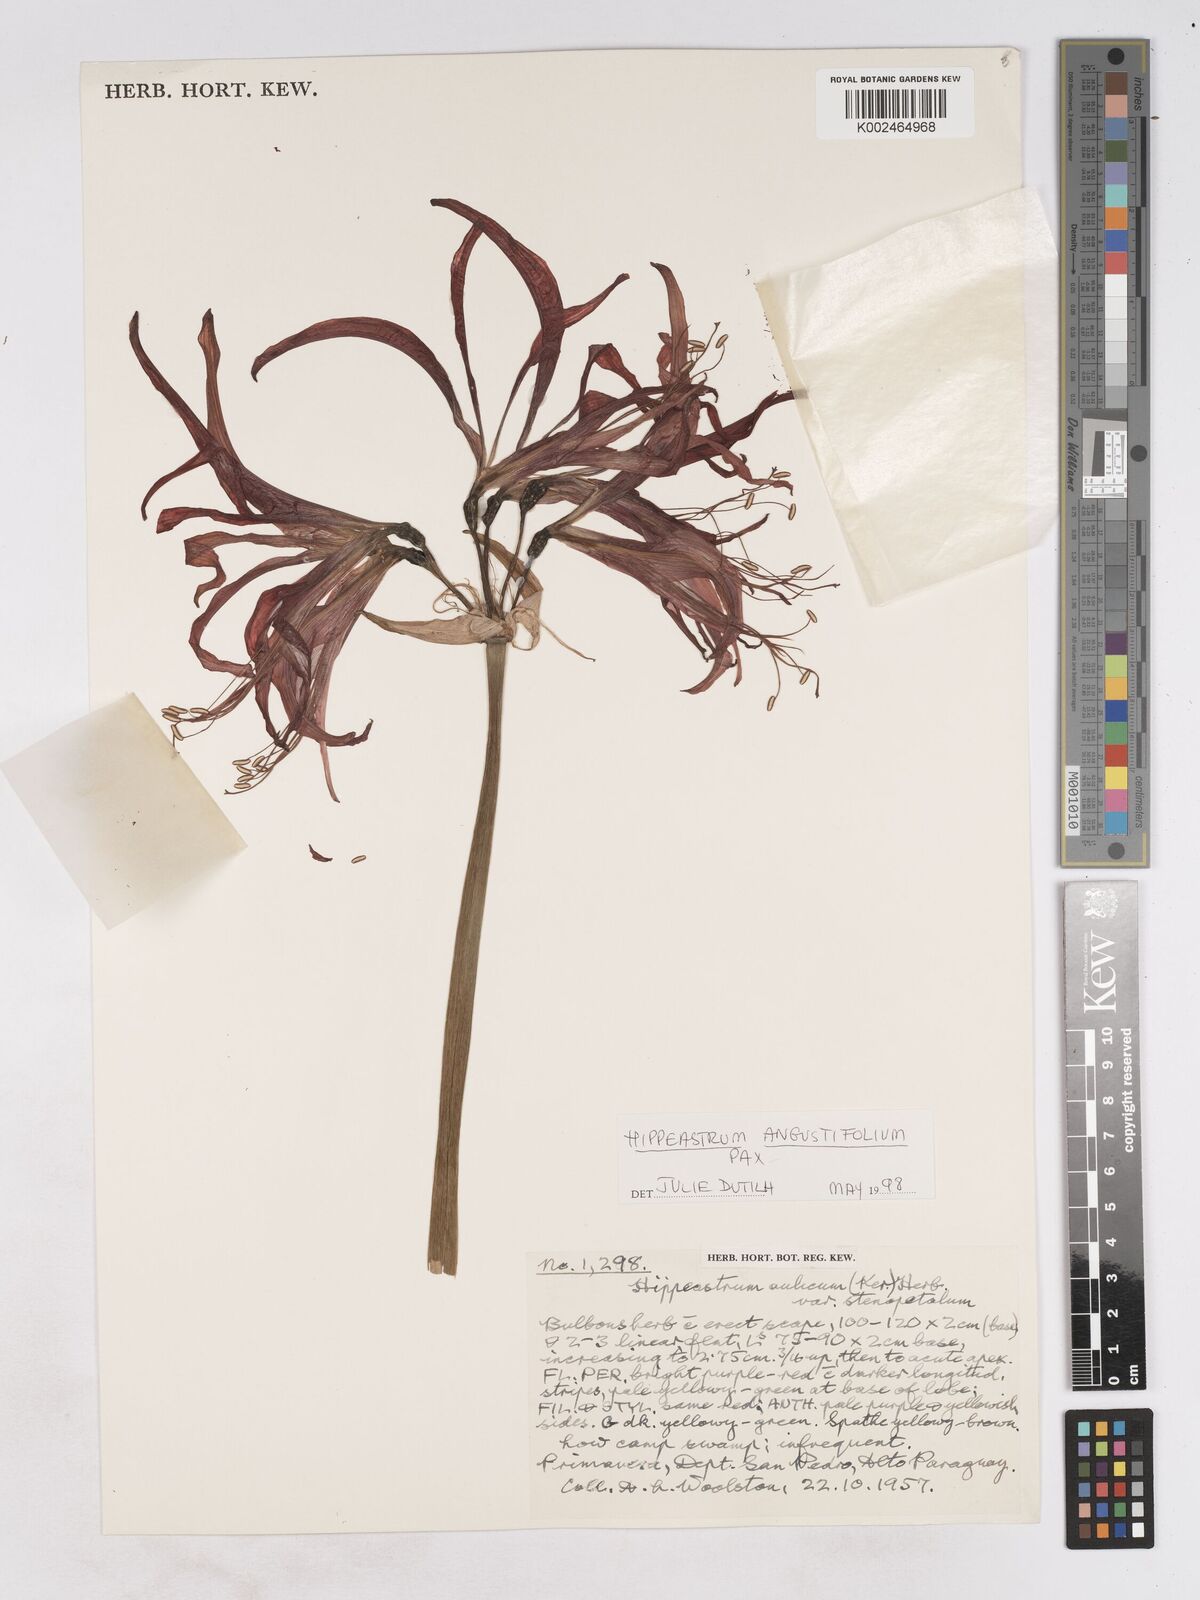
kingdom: Plantae
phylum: Tracheophyta
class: Liliopsida
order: Asparagales
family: Amaryllidaceae
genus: Hippeastrum
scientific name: Hippeastrum angustifolium
